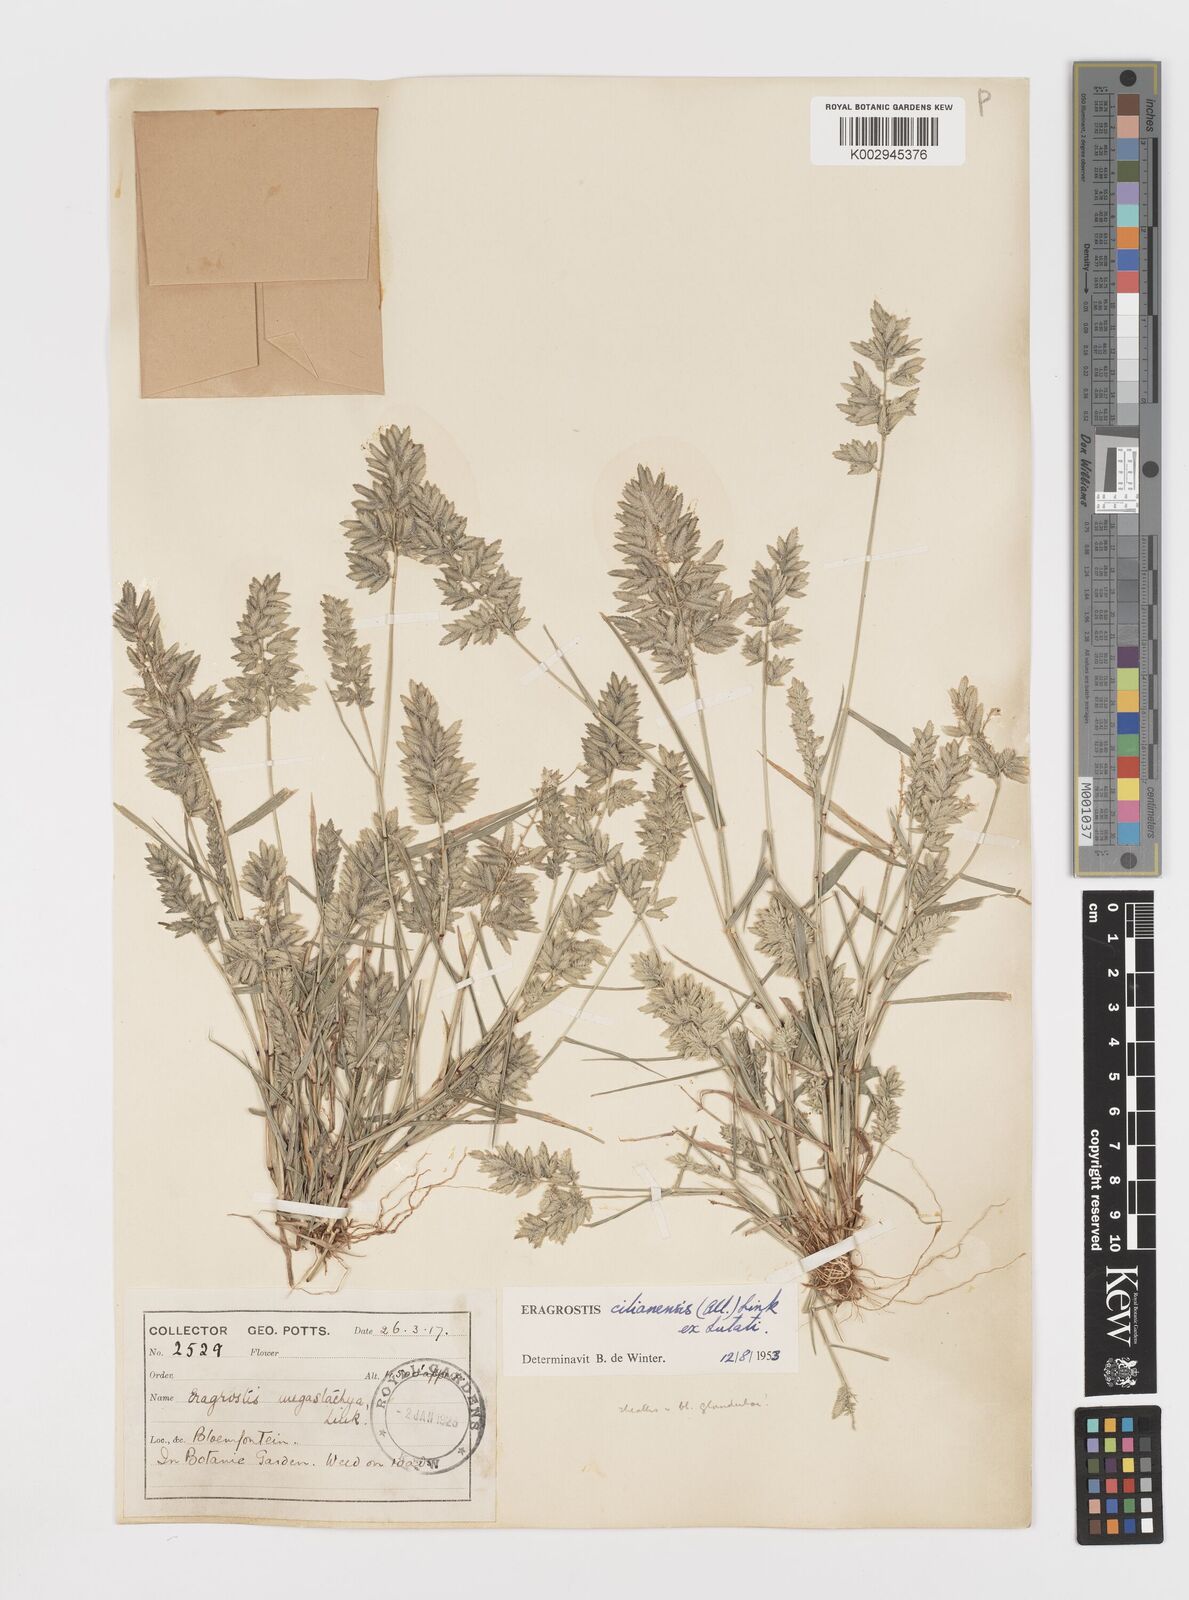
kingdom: Plantae
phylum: Tracheophyta
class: Liliopsida
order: Poales
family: Poaceae
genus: Eragrostis
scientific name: Eragrostis cilianensis
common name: Stinkgrass
